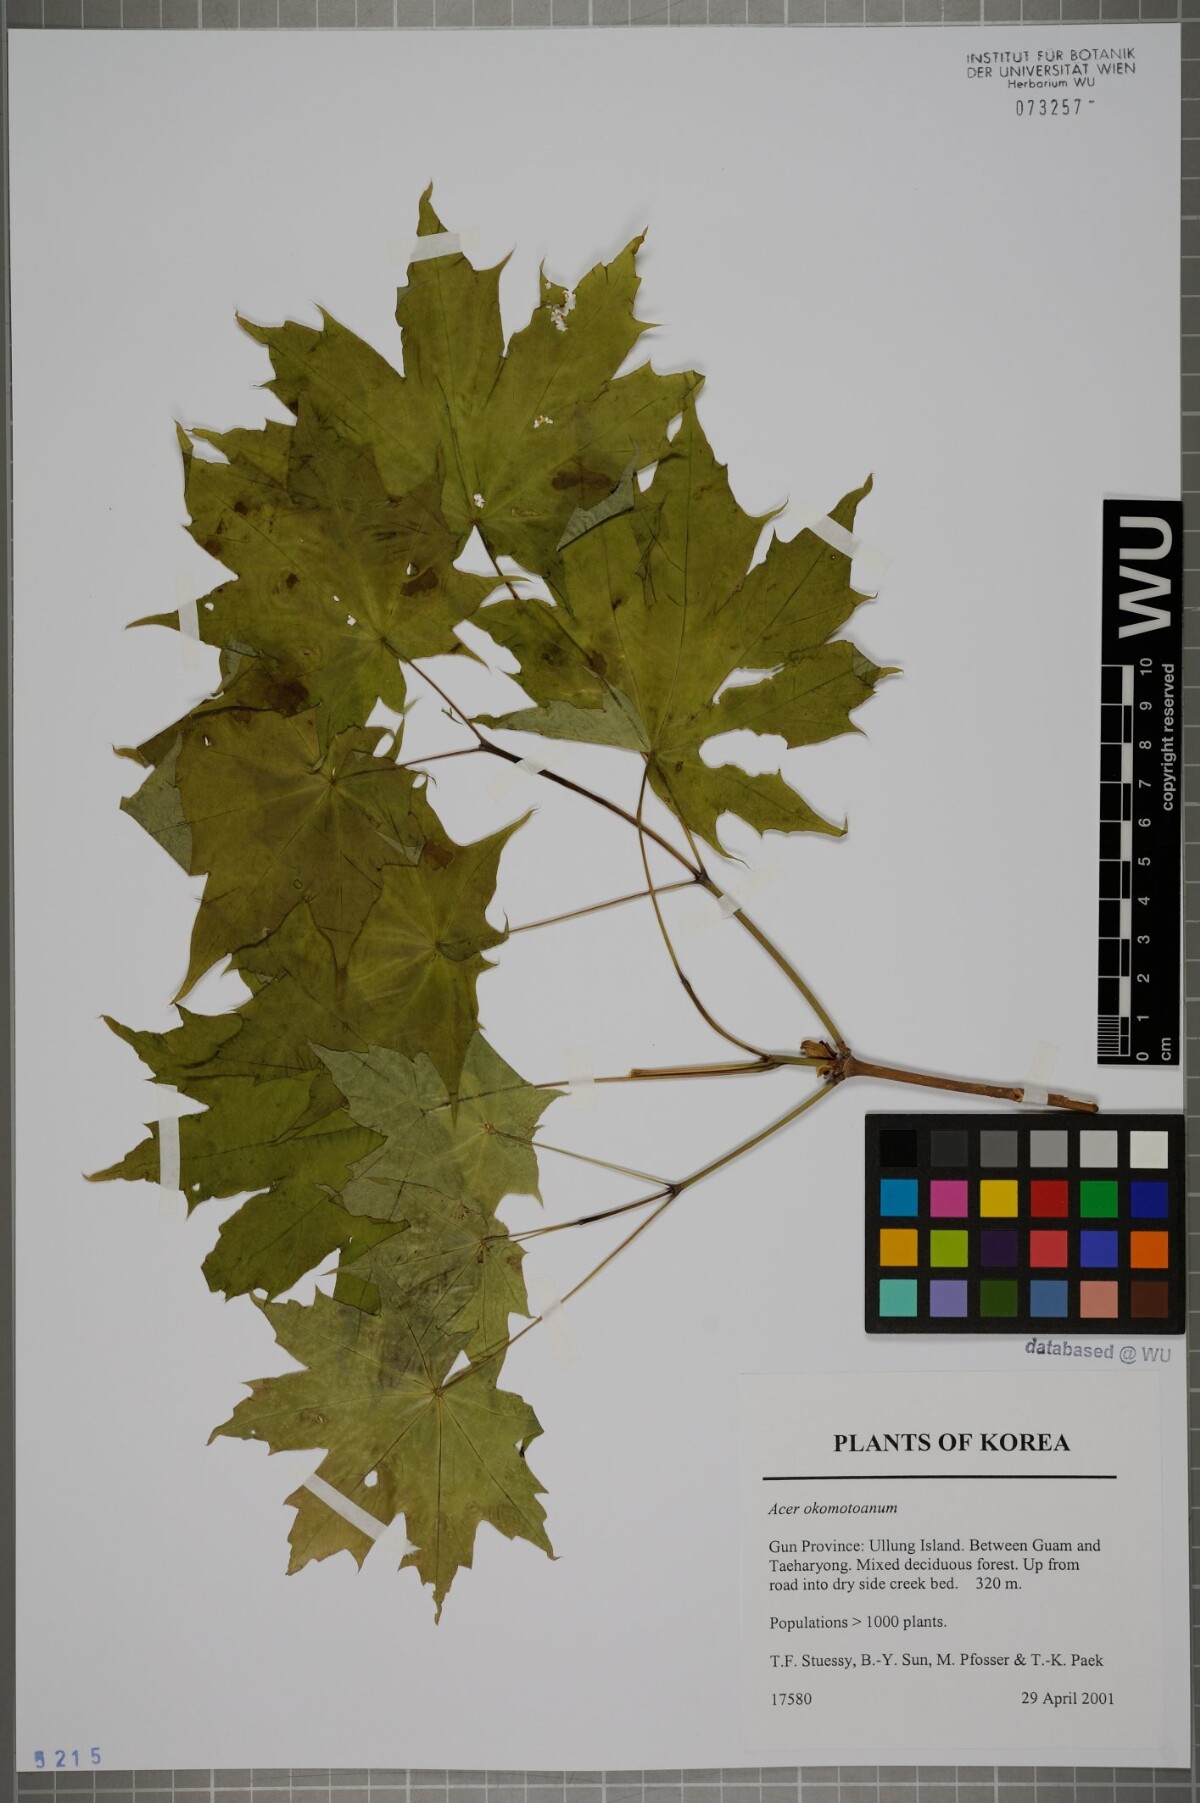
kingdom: Plantae
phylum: Tracheophyta
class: Magnoliopsida
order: Sapindales
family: Sapindaceae
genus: Acer
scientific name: Acer pictum
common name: The painted maple
